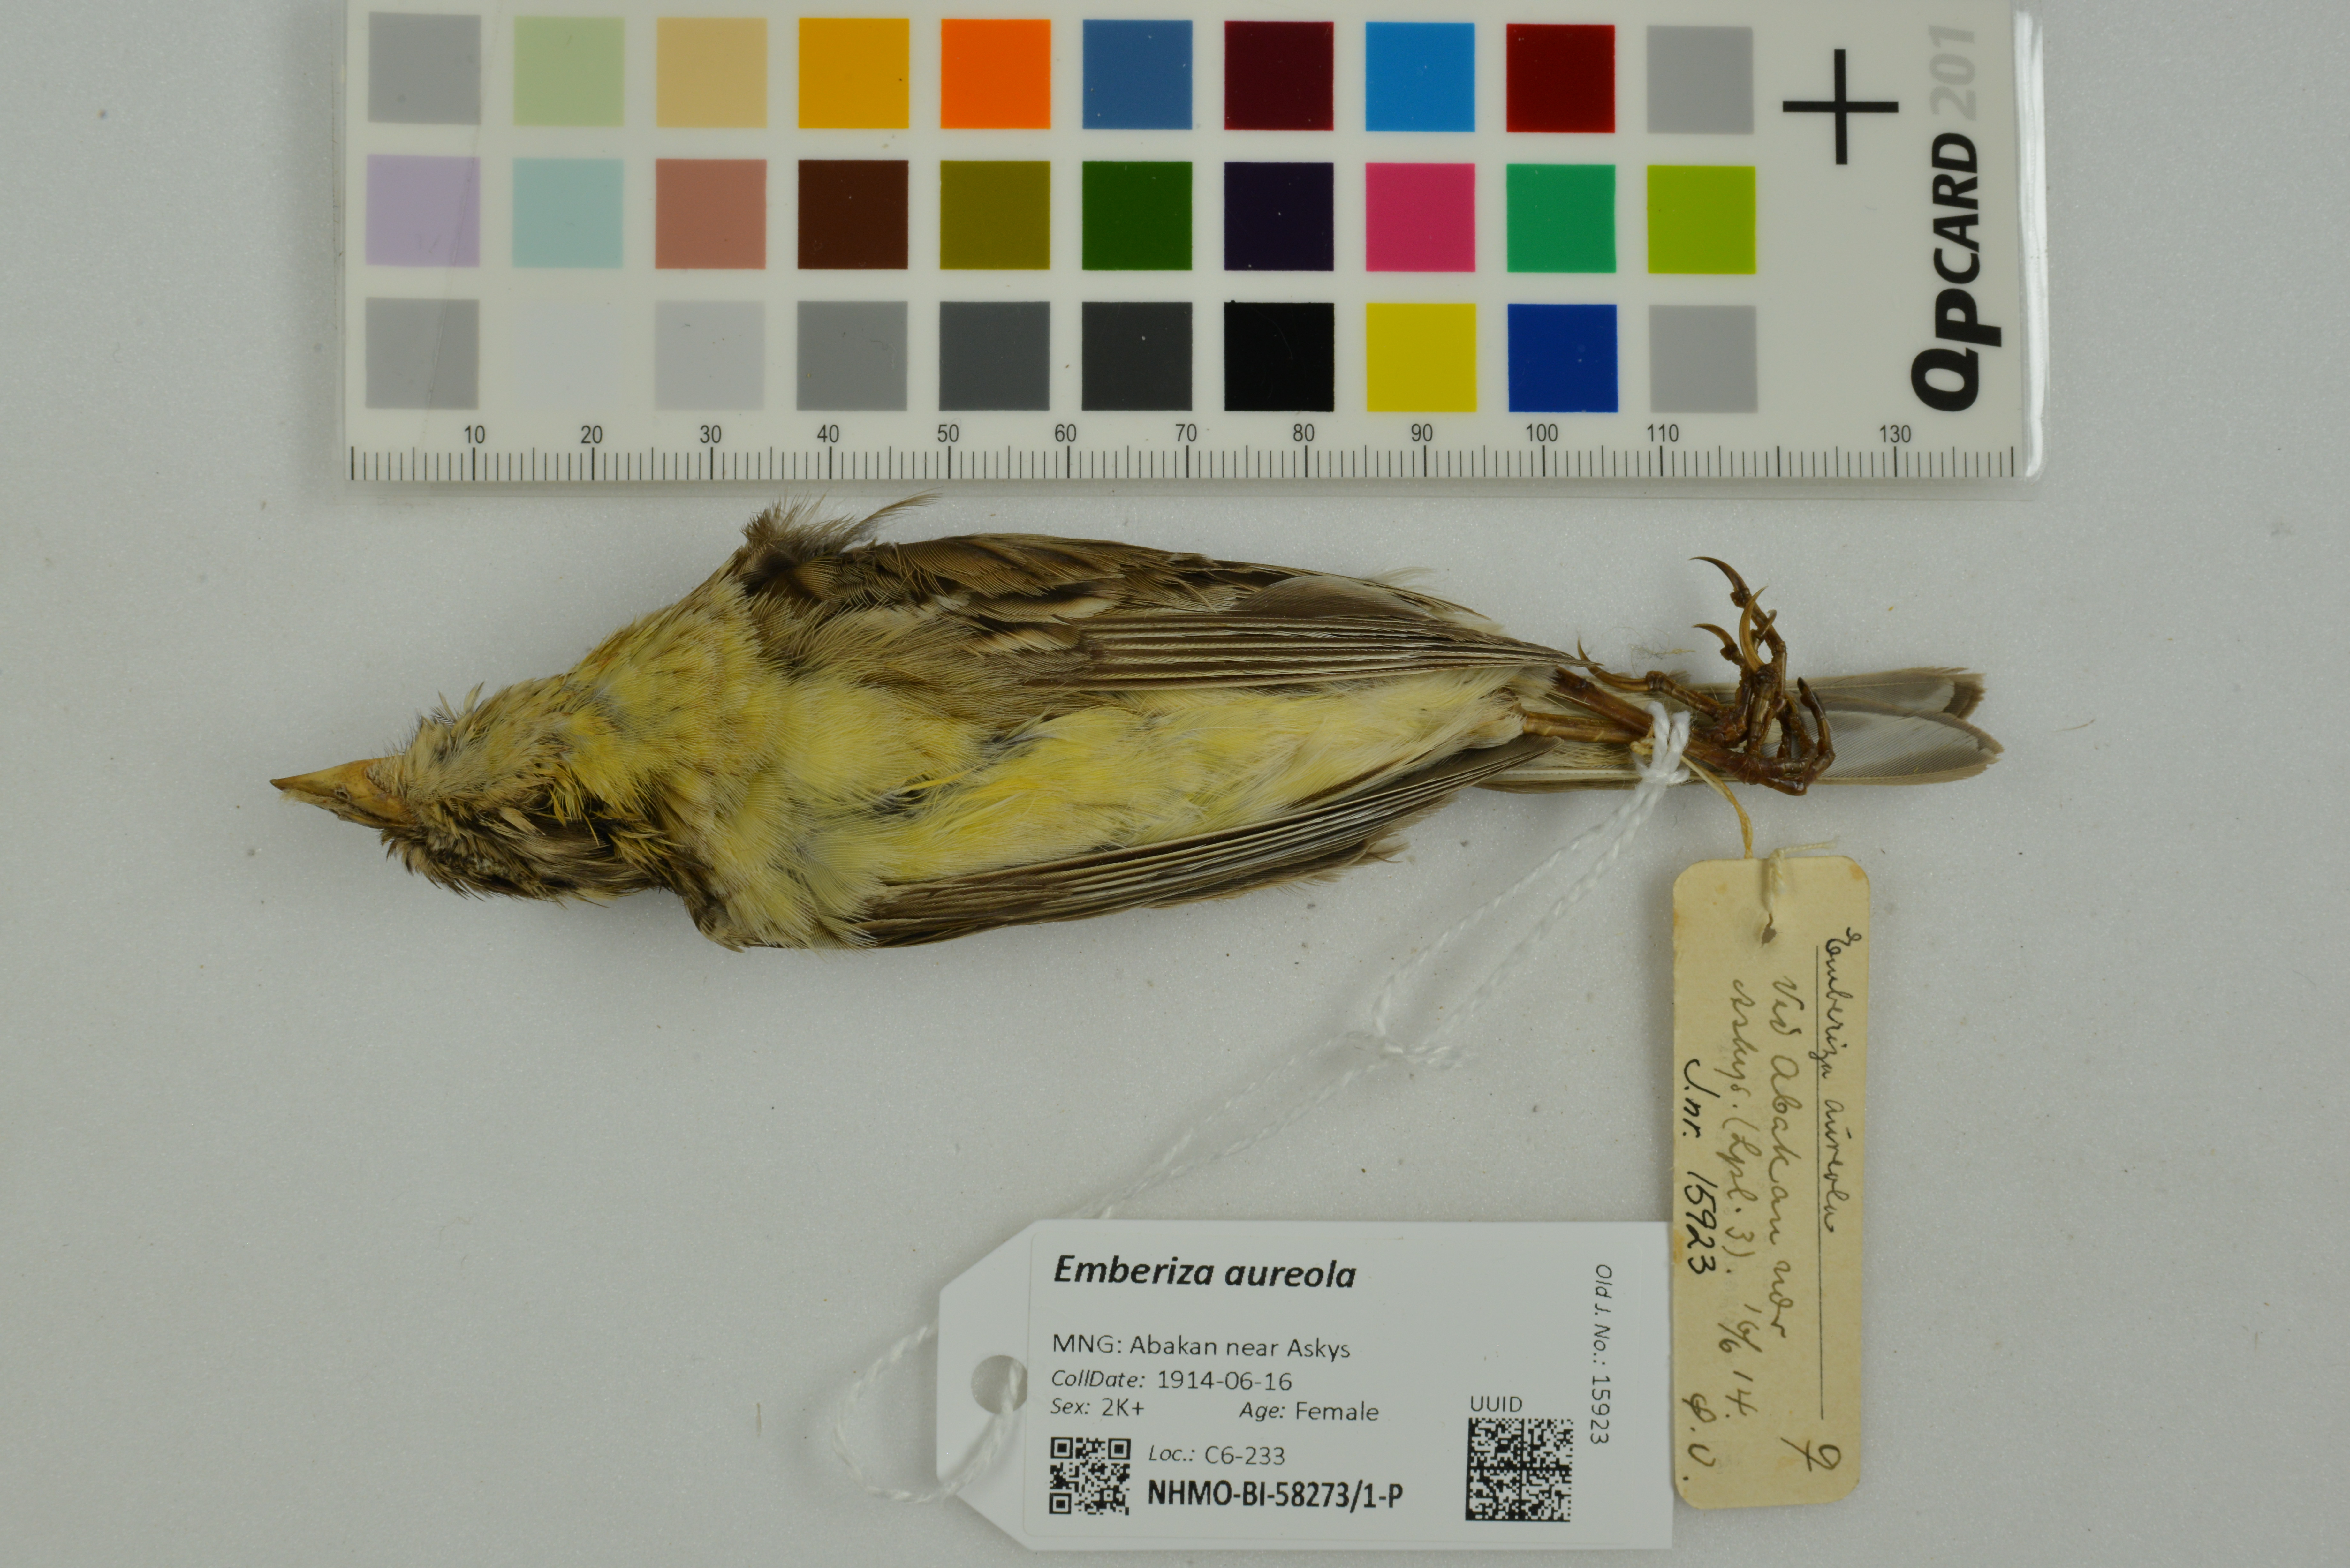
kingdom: Animalia
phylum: Chordata
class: Aves
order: Passeriformes
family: Emberizidae
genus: Emberiza
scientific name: Emberiza aureola
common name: Yellow-breasted bunting
